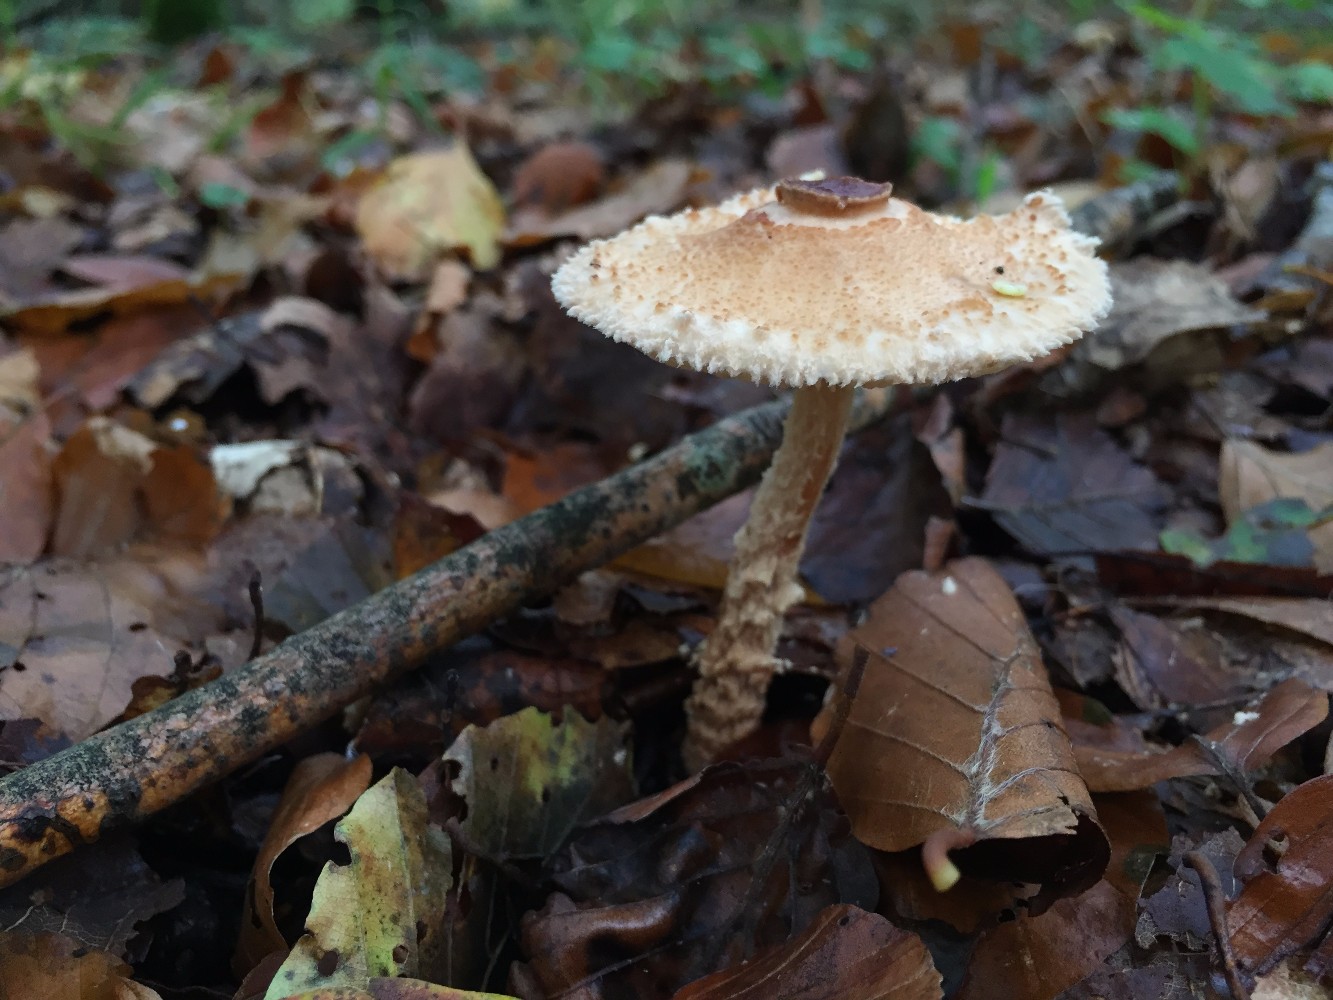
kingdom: Fungi
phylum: Basidiomycota
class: Agaricomycetes
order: Agaricales
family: Agaricaceae
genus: Lepiota
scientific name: Lepiota magnispora
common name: gulfnugget parasolhat
